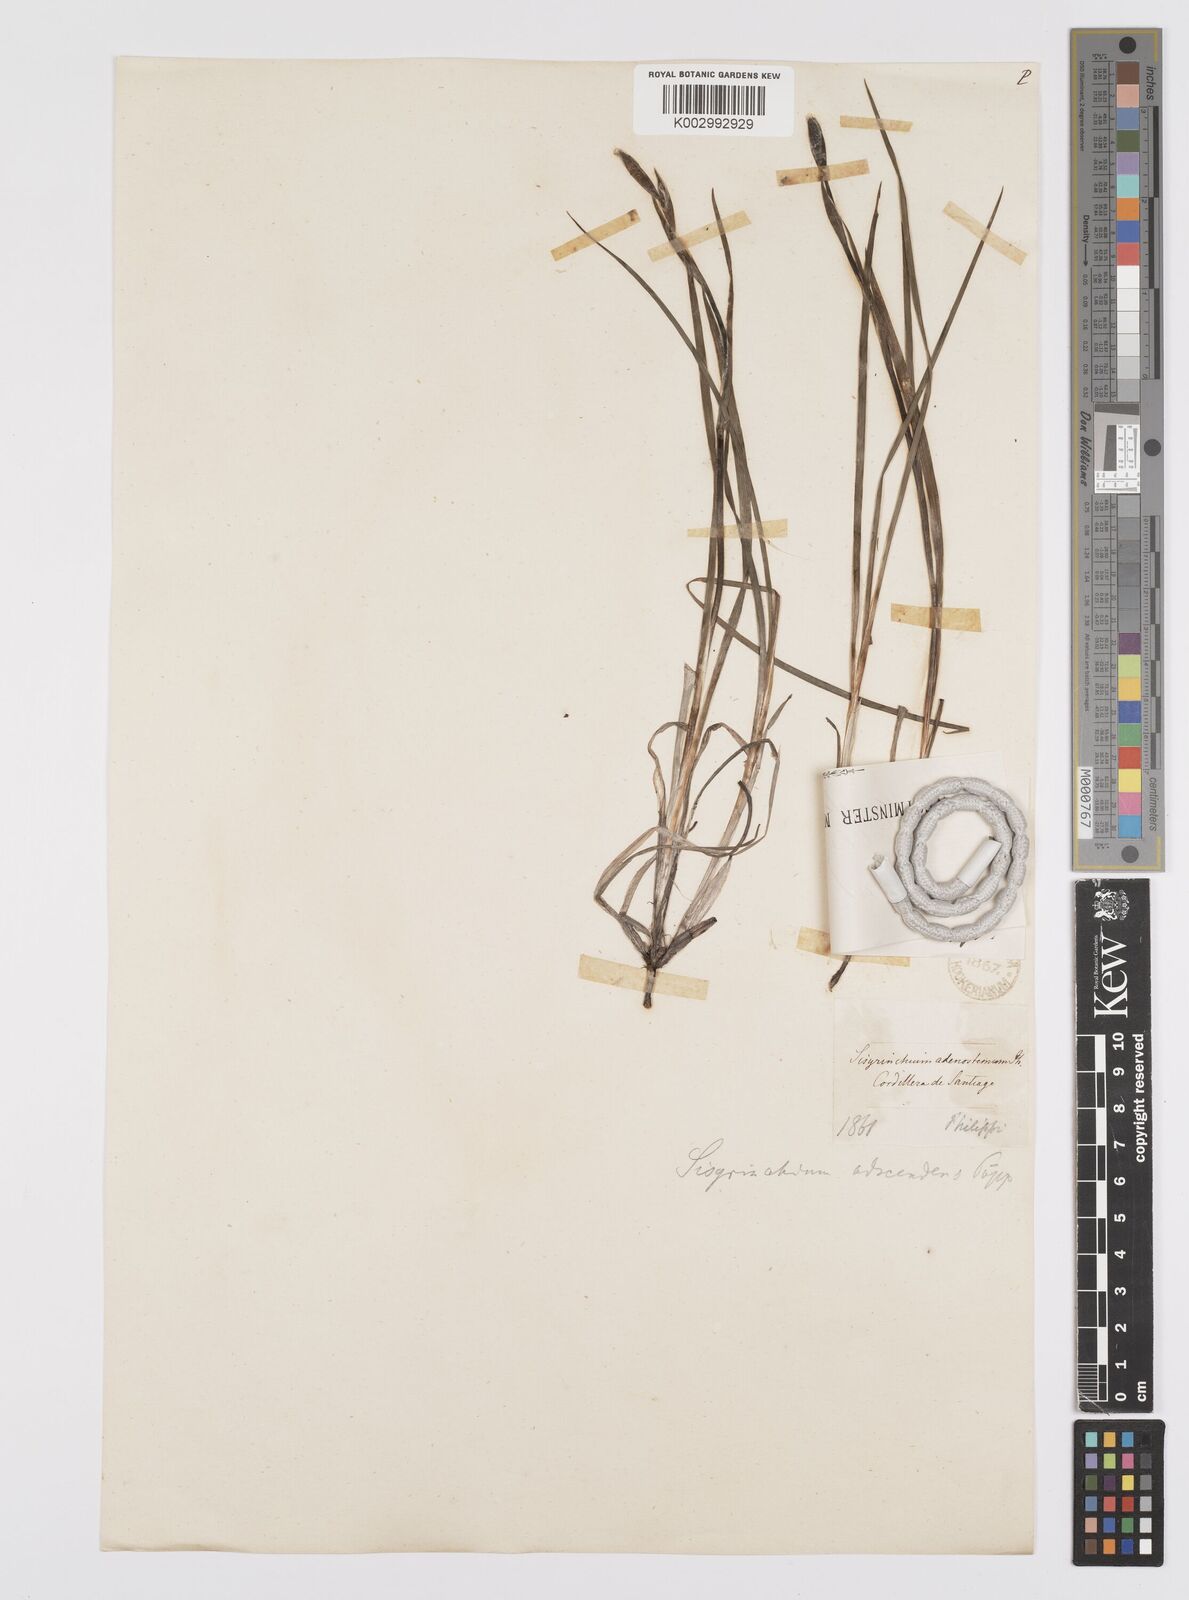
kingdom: Plantae
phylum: Tracheophyta
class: Liliopsida
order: Asparagales
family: Iridaceae
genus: Sisyrinchium
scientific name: Sisyrinchium cuspidatum
